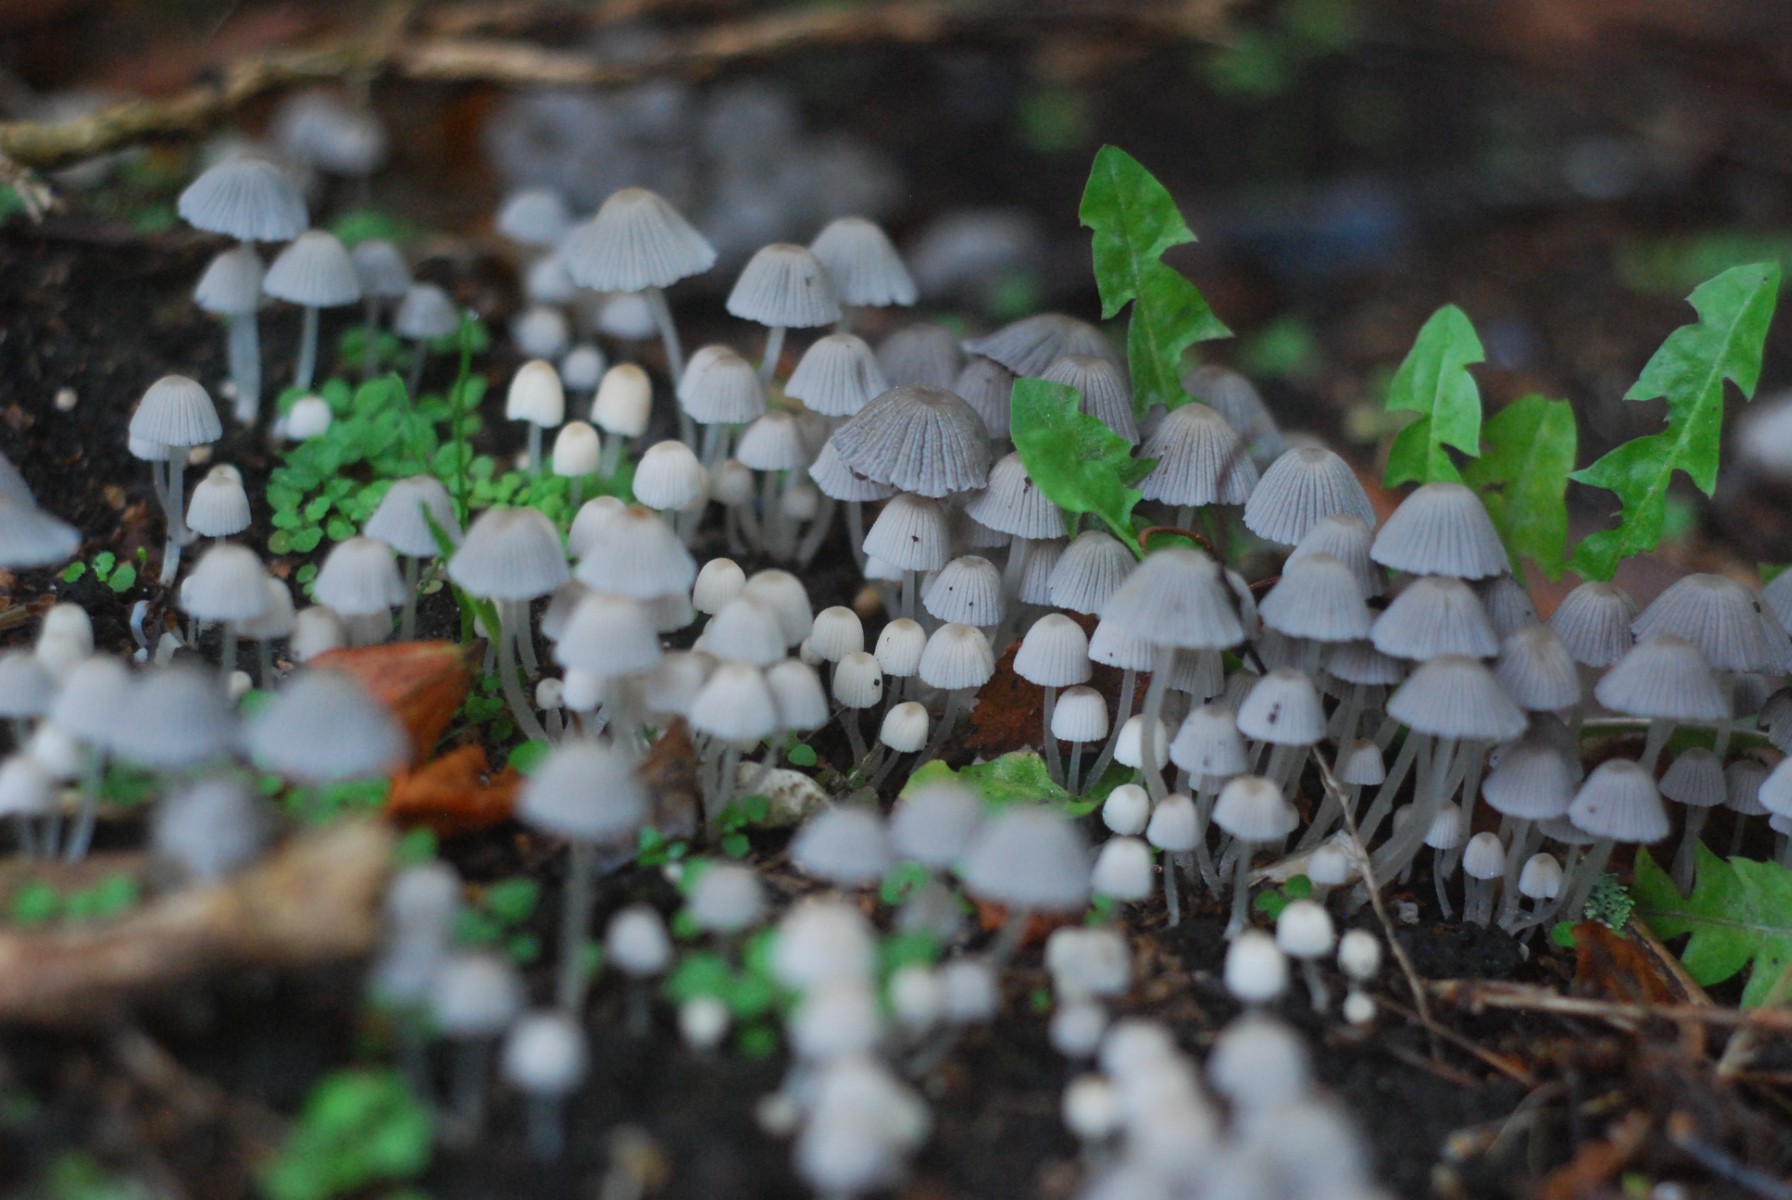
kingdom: Fungi
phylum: Basidiomycota
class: Agaricomycetes
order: Agaricales
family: Psathyrellaceae
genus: Coprinellus
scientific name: Coprinellus disseminatus
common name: bredsået blækhat
